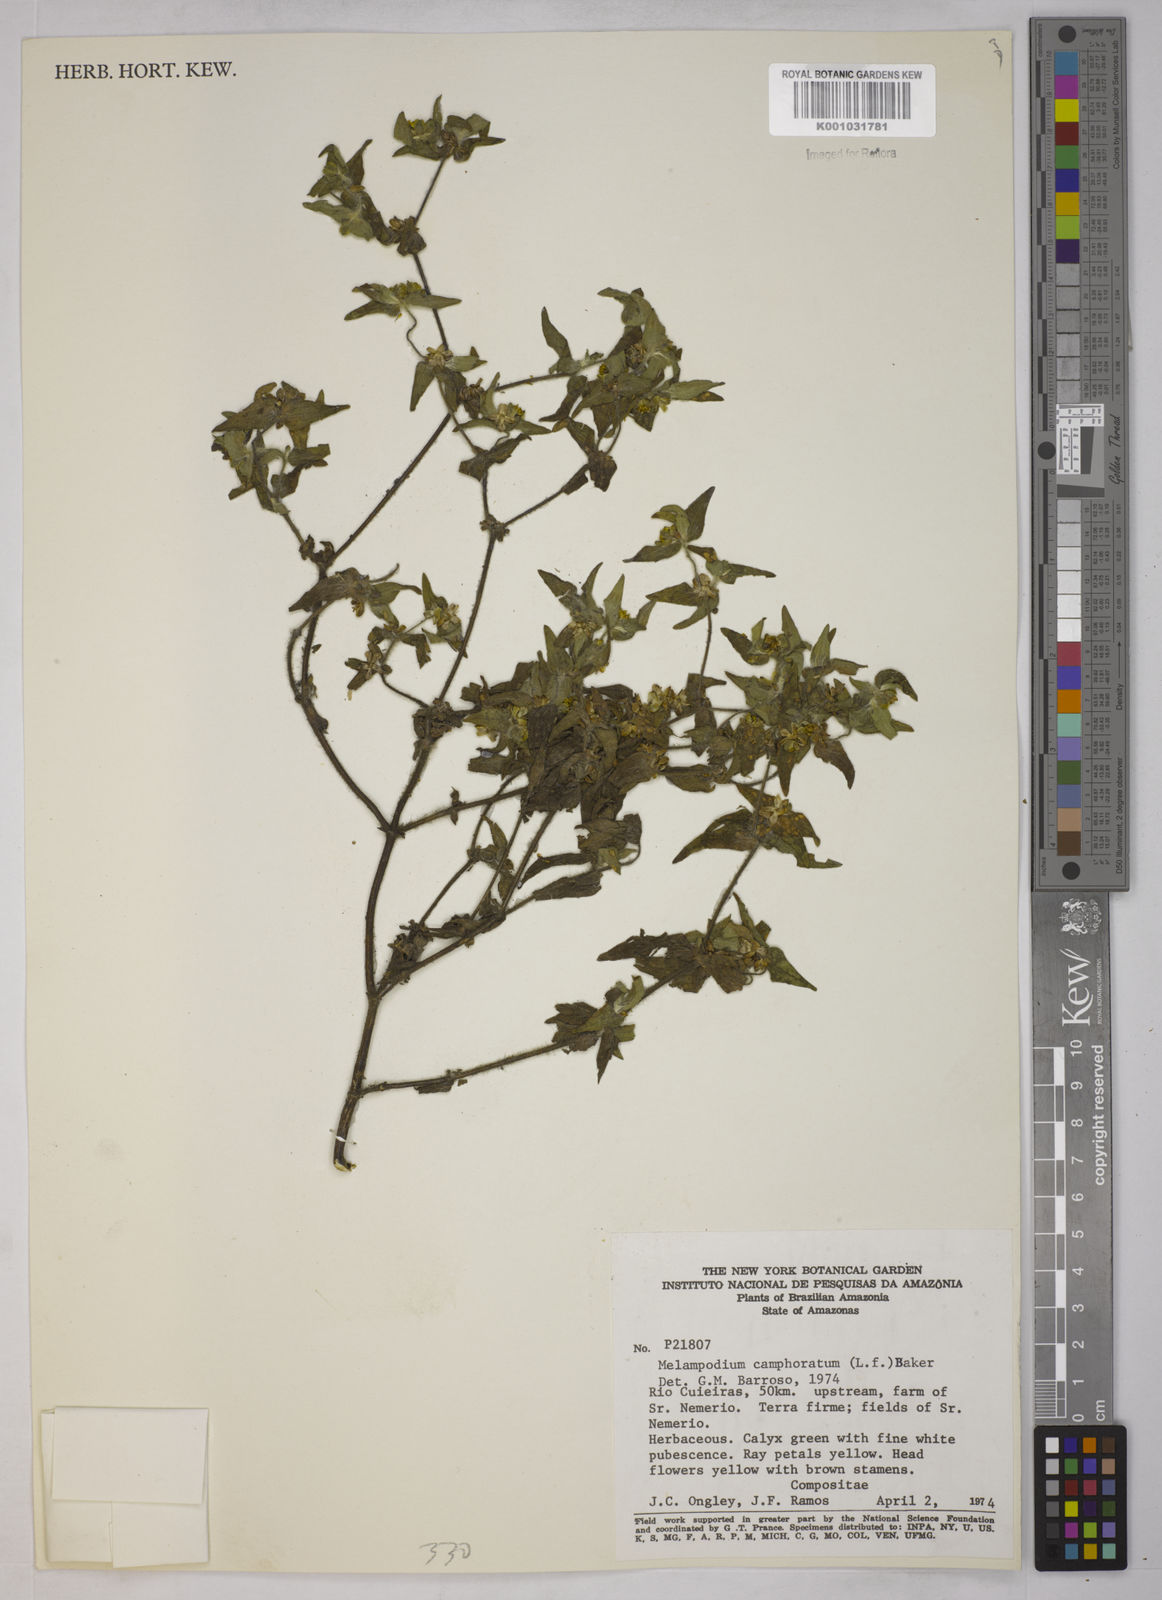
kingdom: Plantae
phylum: Tracheophyta
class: Magnoliopsida
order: Asterales
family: Asteraceae
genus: Unxia
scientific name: Unxia camphorata
